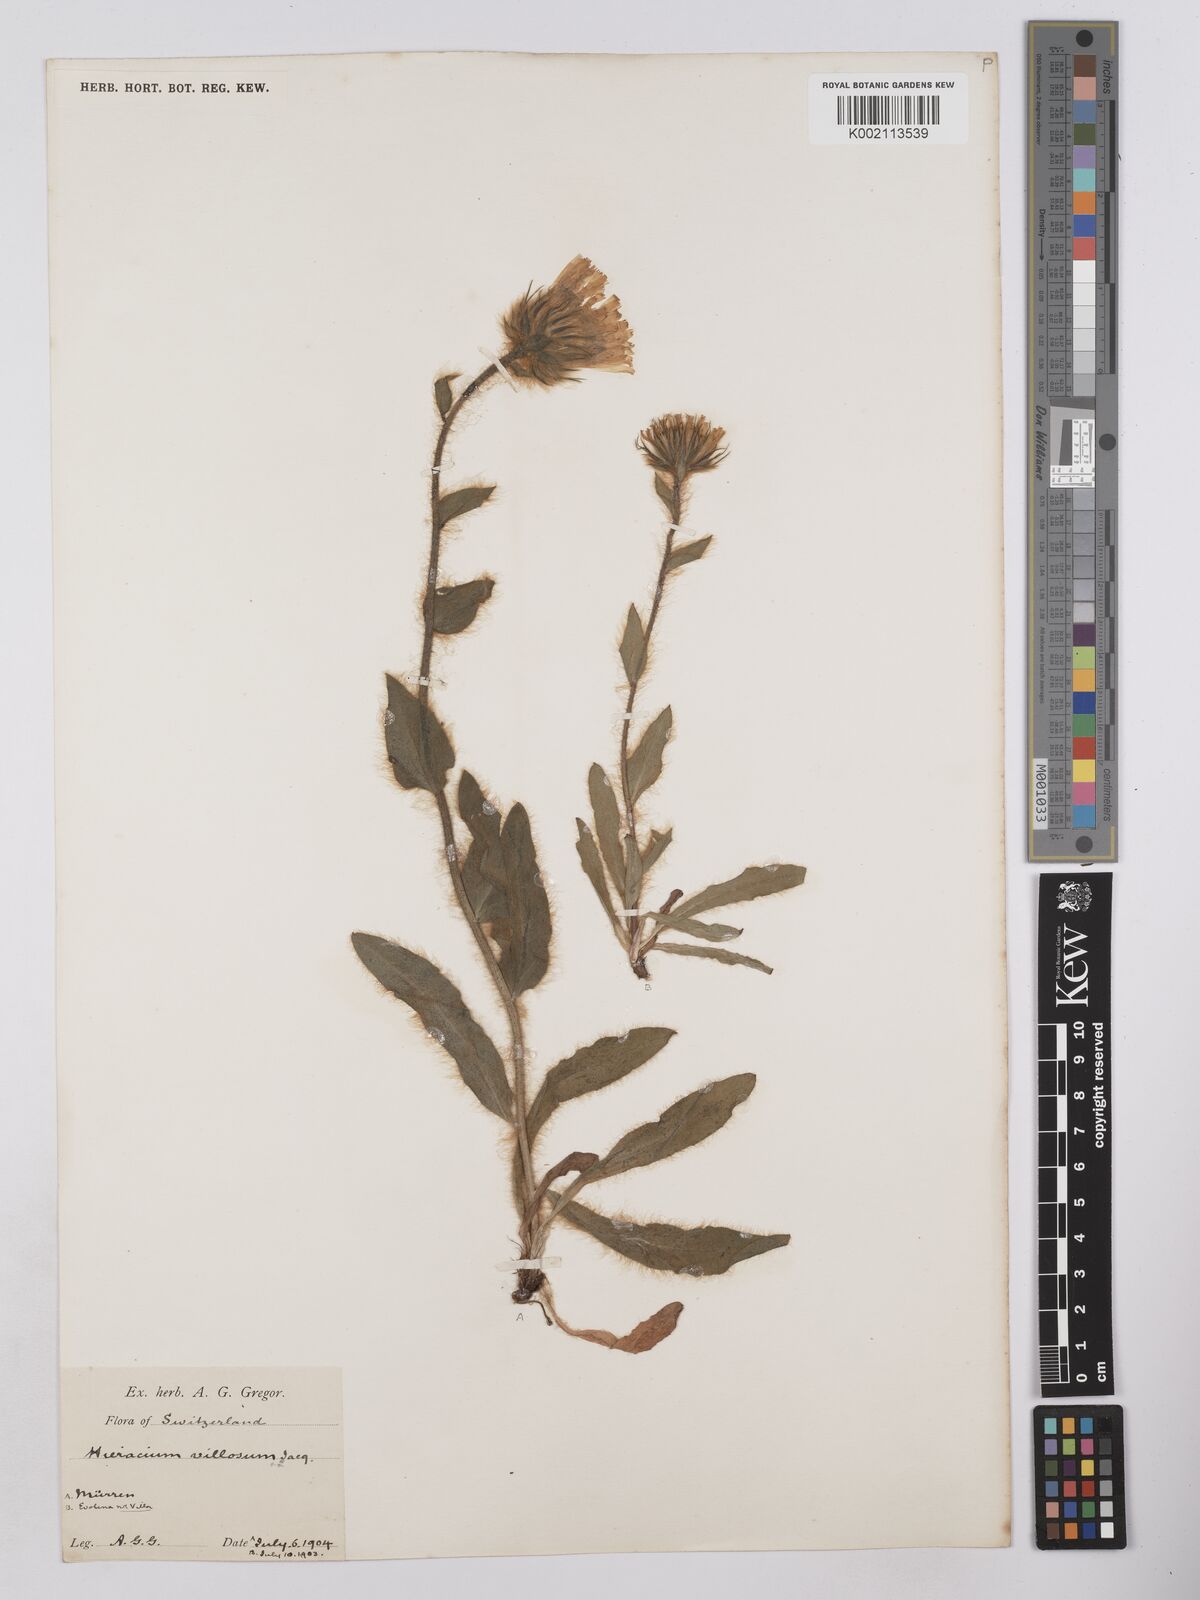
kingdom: Plantae
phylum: Tracheophyta
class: Magnoliopsida
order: Asterales
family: Asteraceae
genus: Hieracium
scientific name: Hieracium villosum
